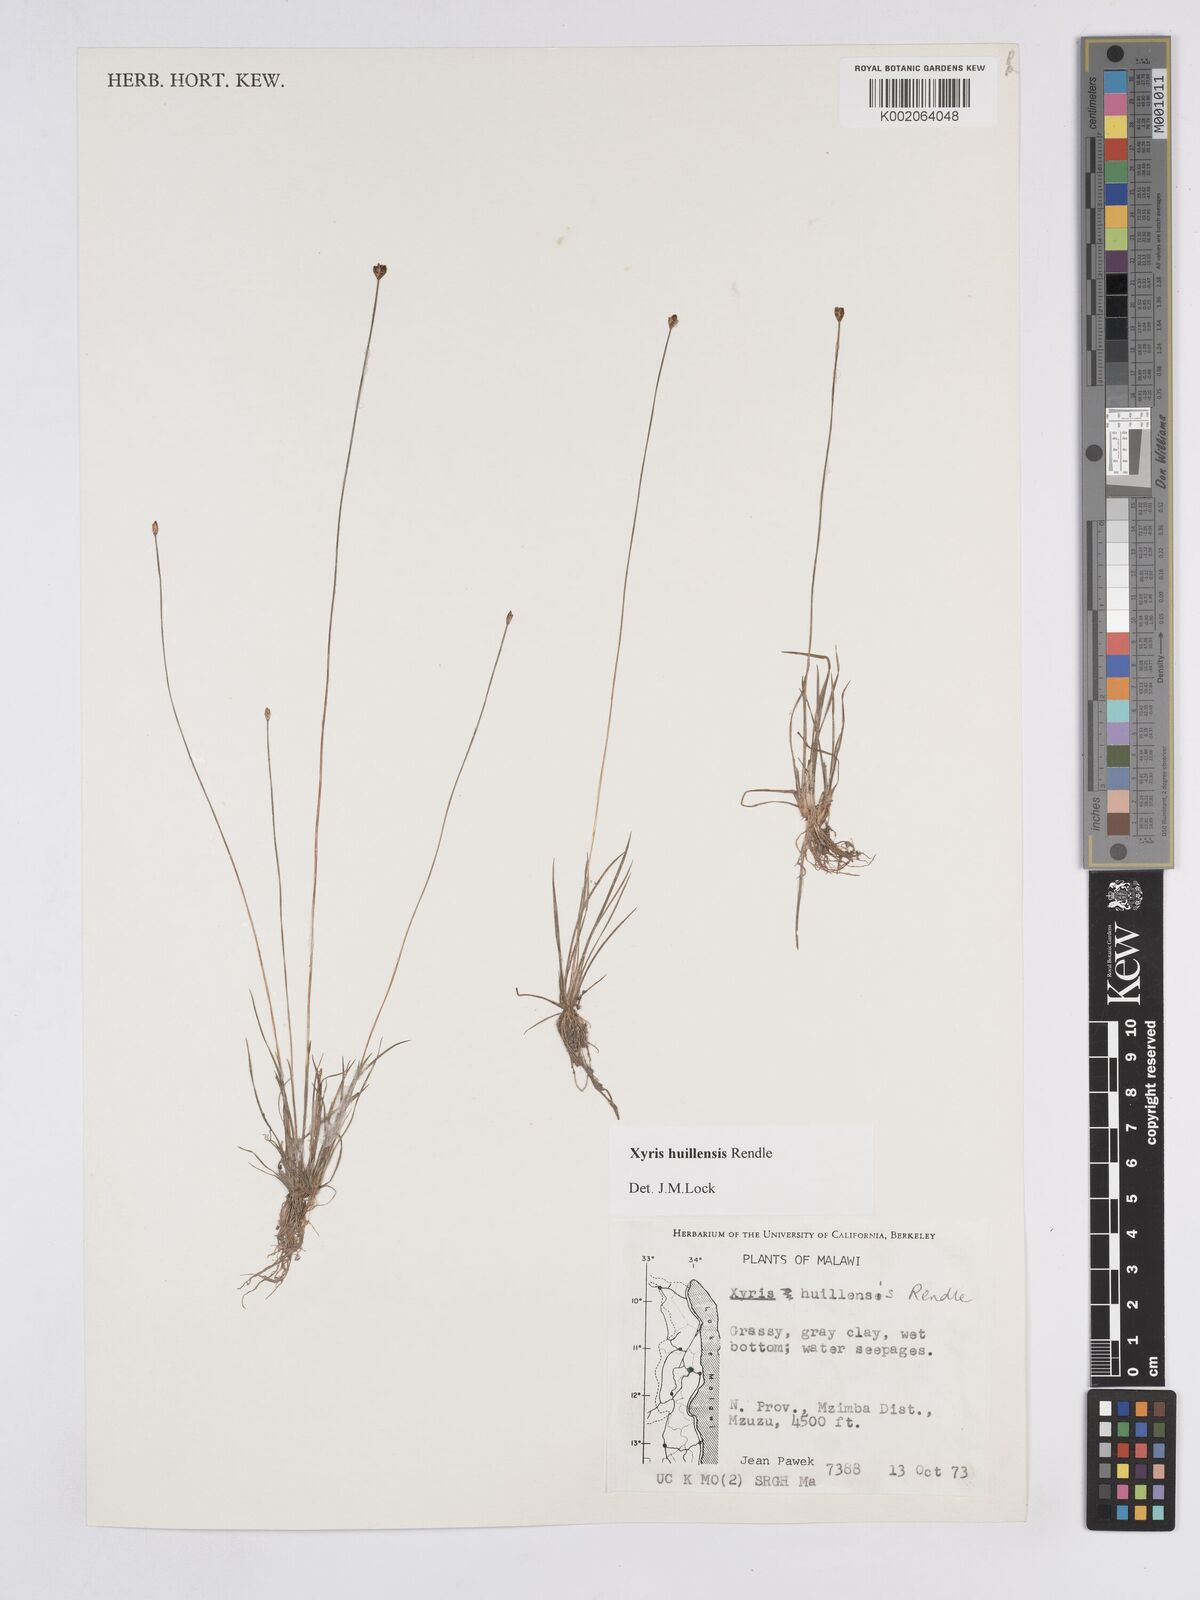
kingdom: Plantae
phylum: Tracheophyta
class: Liliopsida
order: Poales
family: Xyridaceae
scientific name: Xyridaceae
